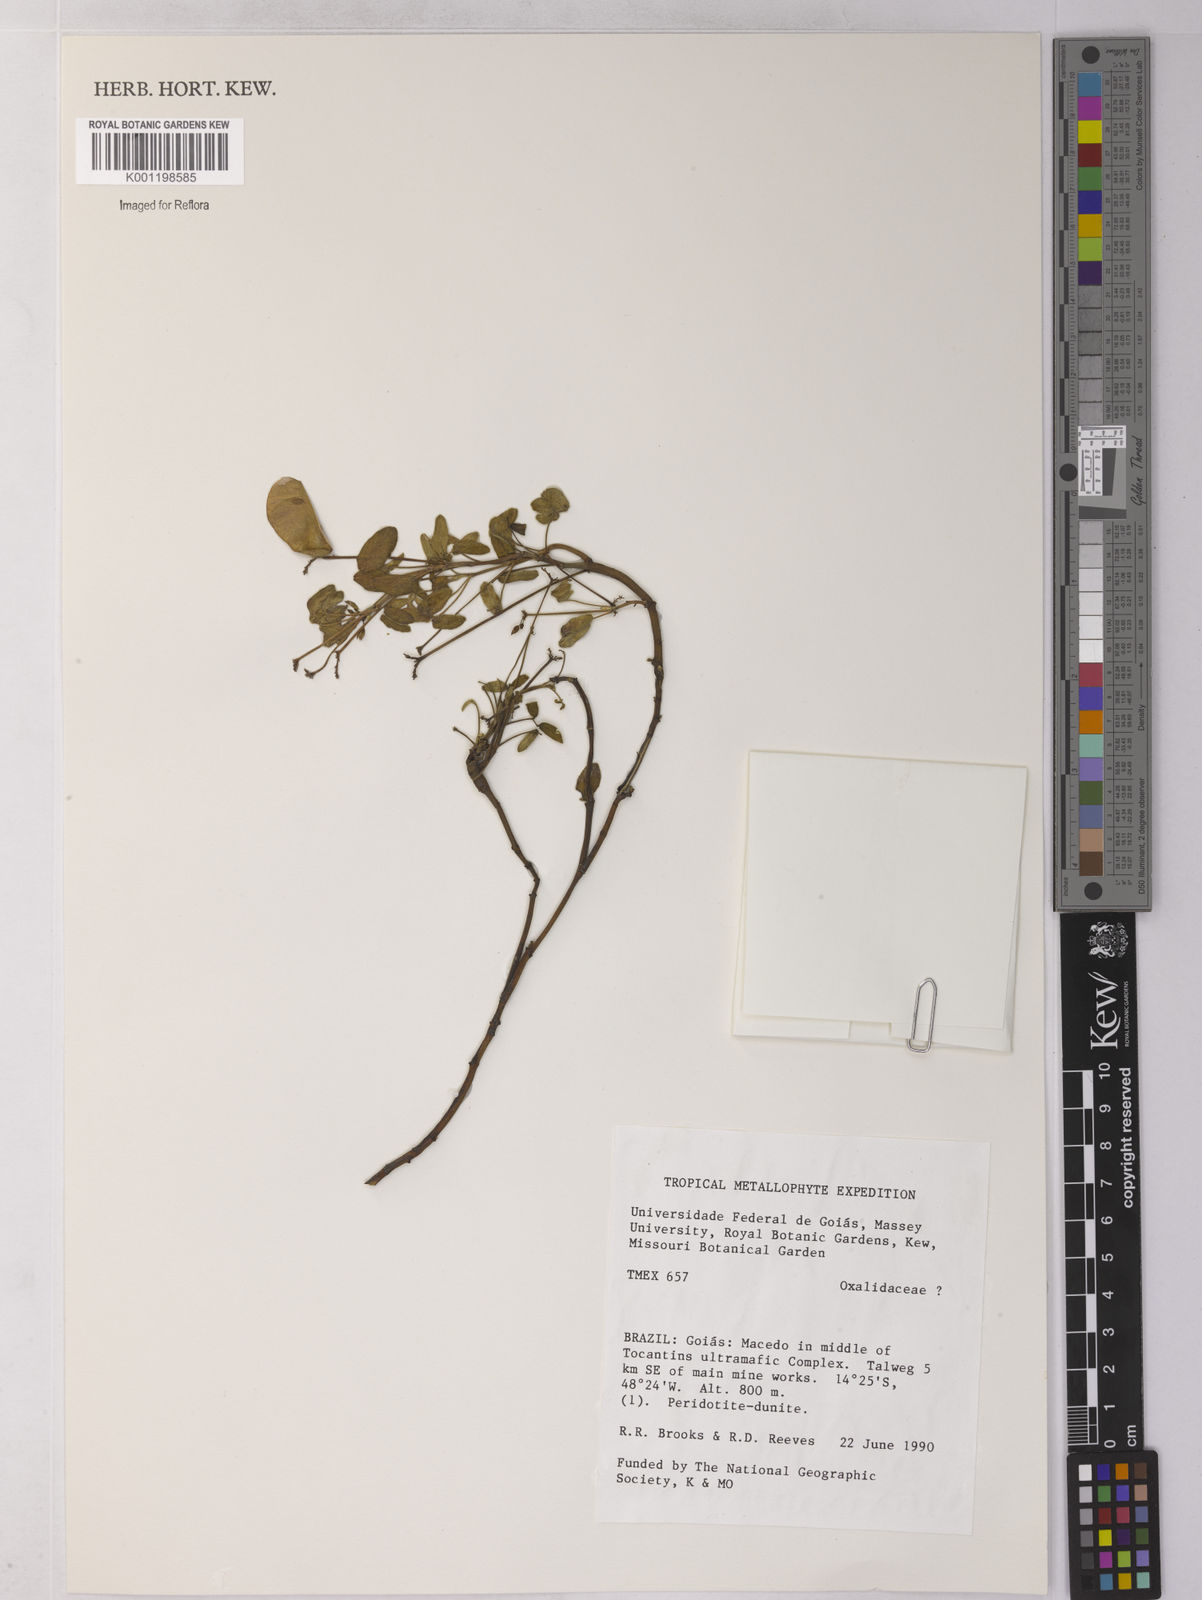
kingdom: Plantae
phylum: Tracheophyta
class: Magnoliopsida
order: Oxalidales
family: Oxalidaceae
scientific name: Oxalidaceae
